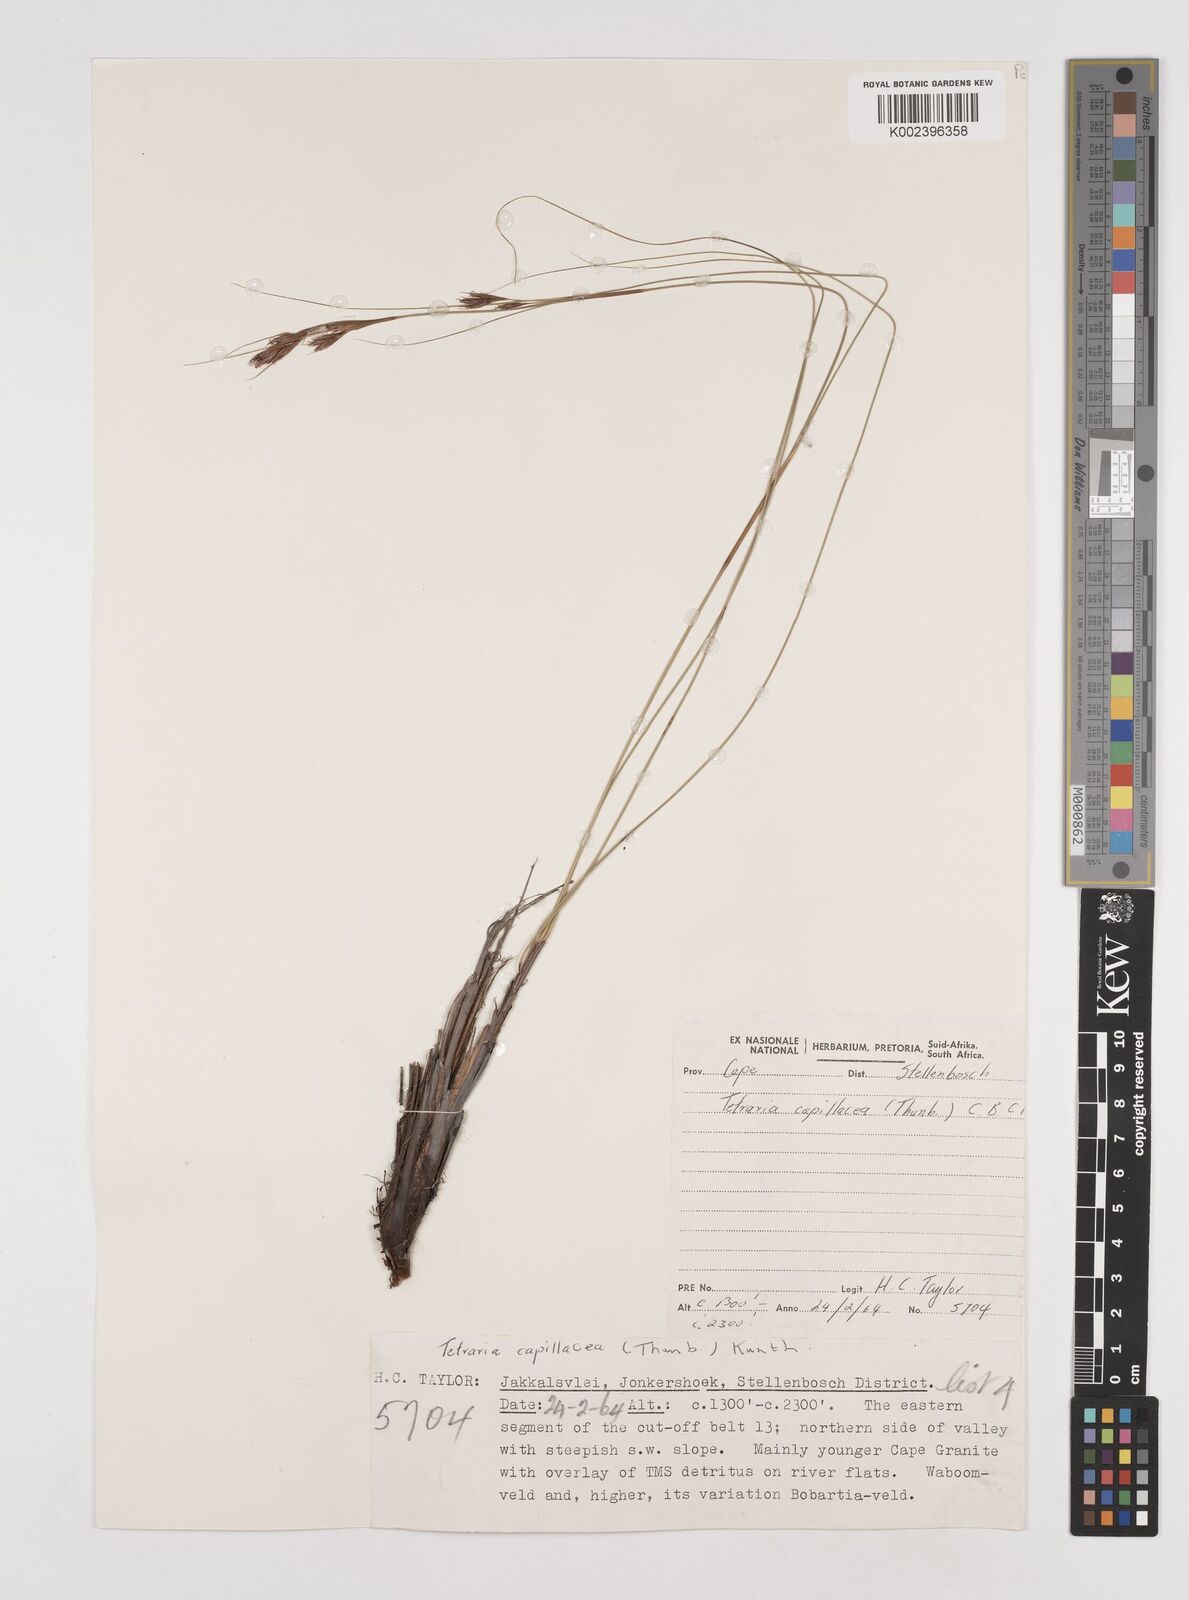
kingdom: Plantae
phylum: Tracheophyta
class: Liliopsida
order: Poales
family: Cyperaceae
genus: Tetraria
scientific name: Tetraria
